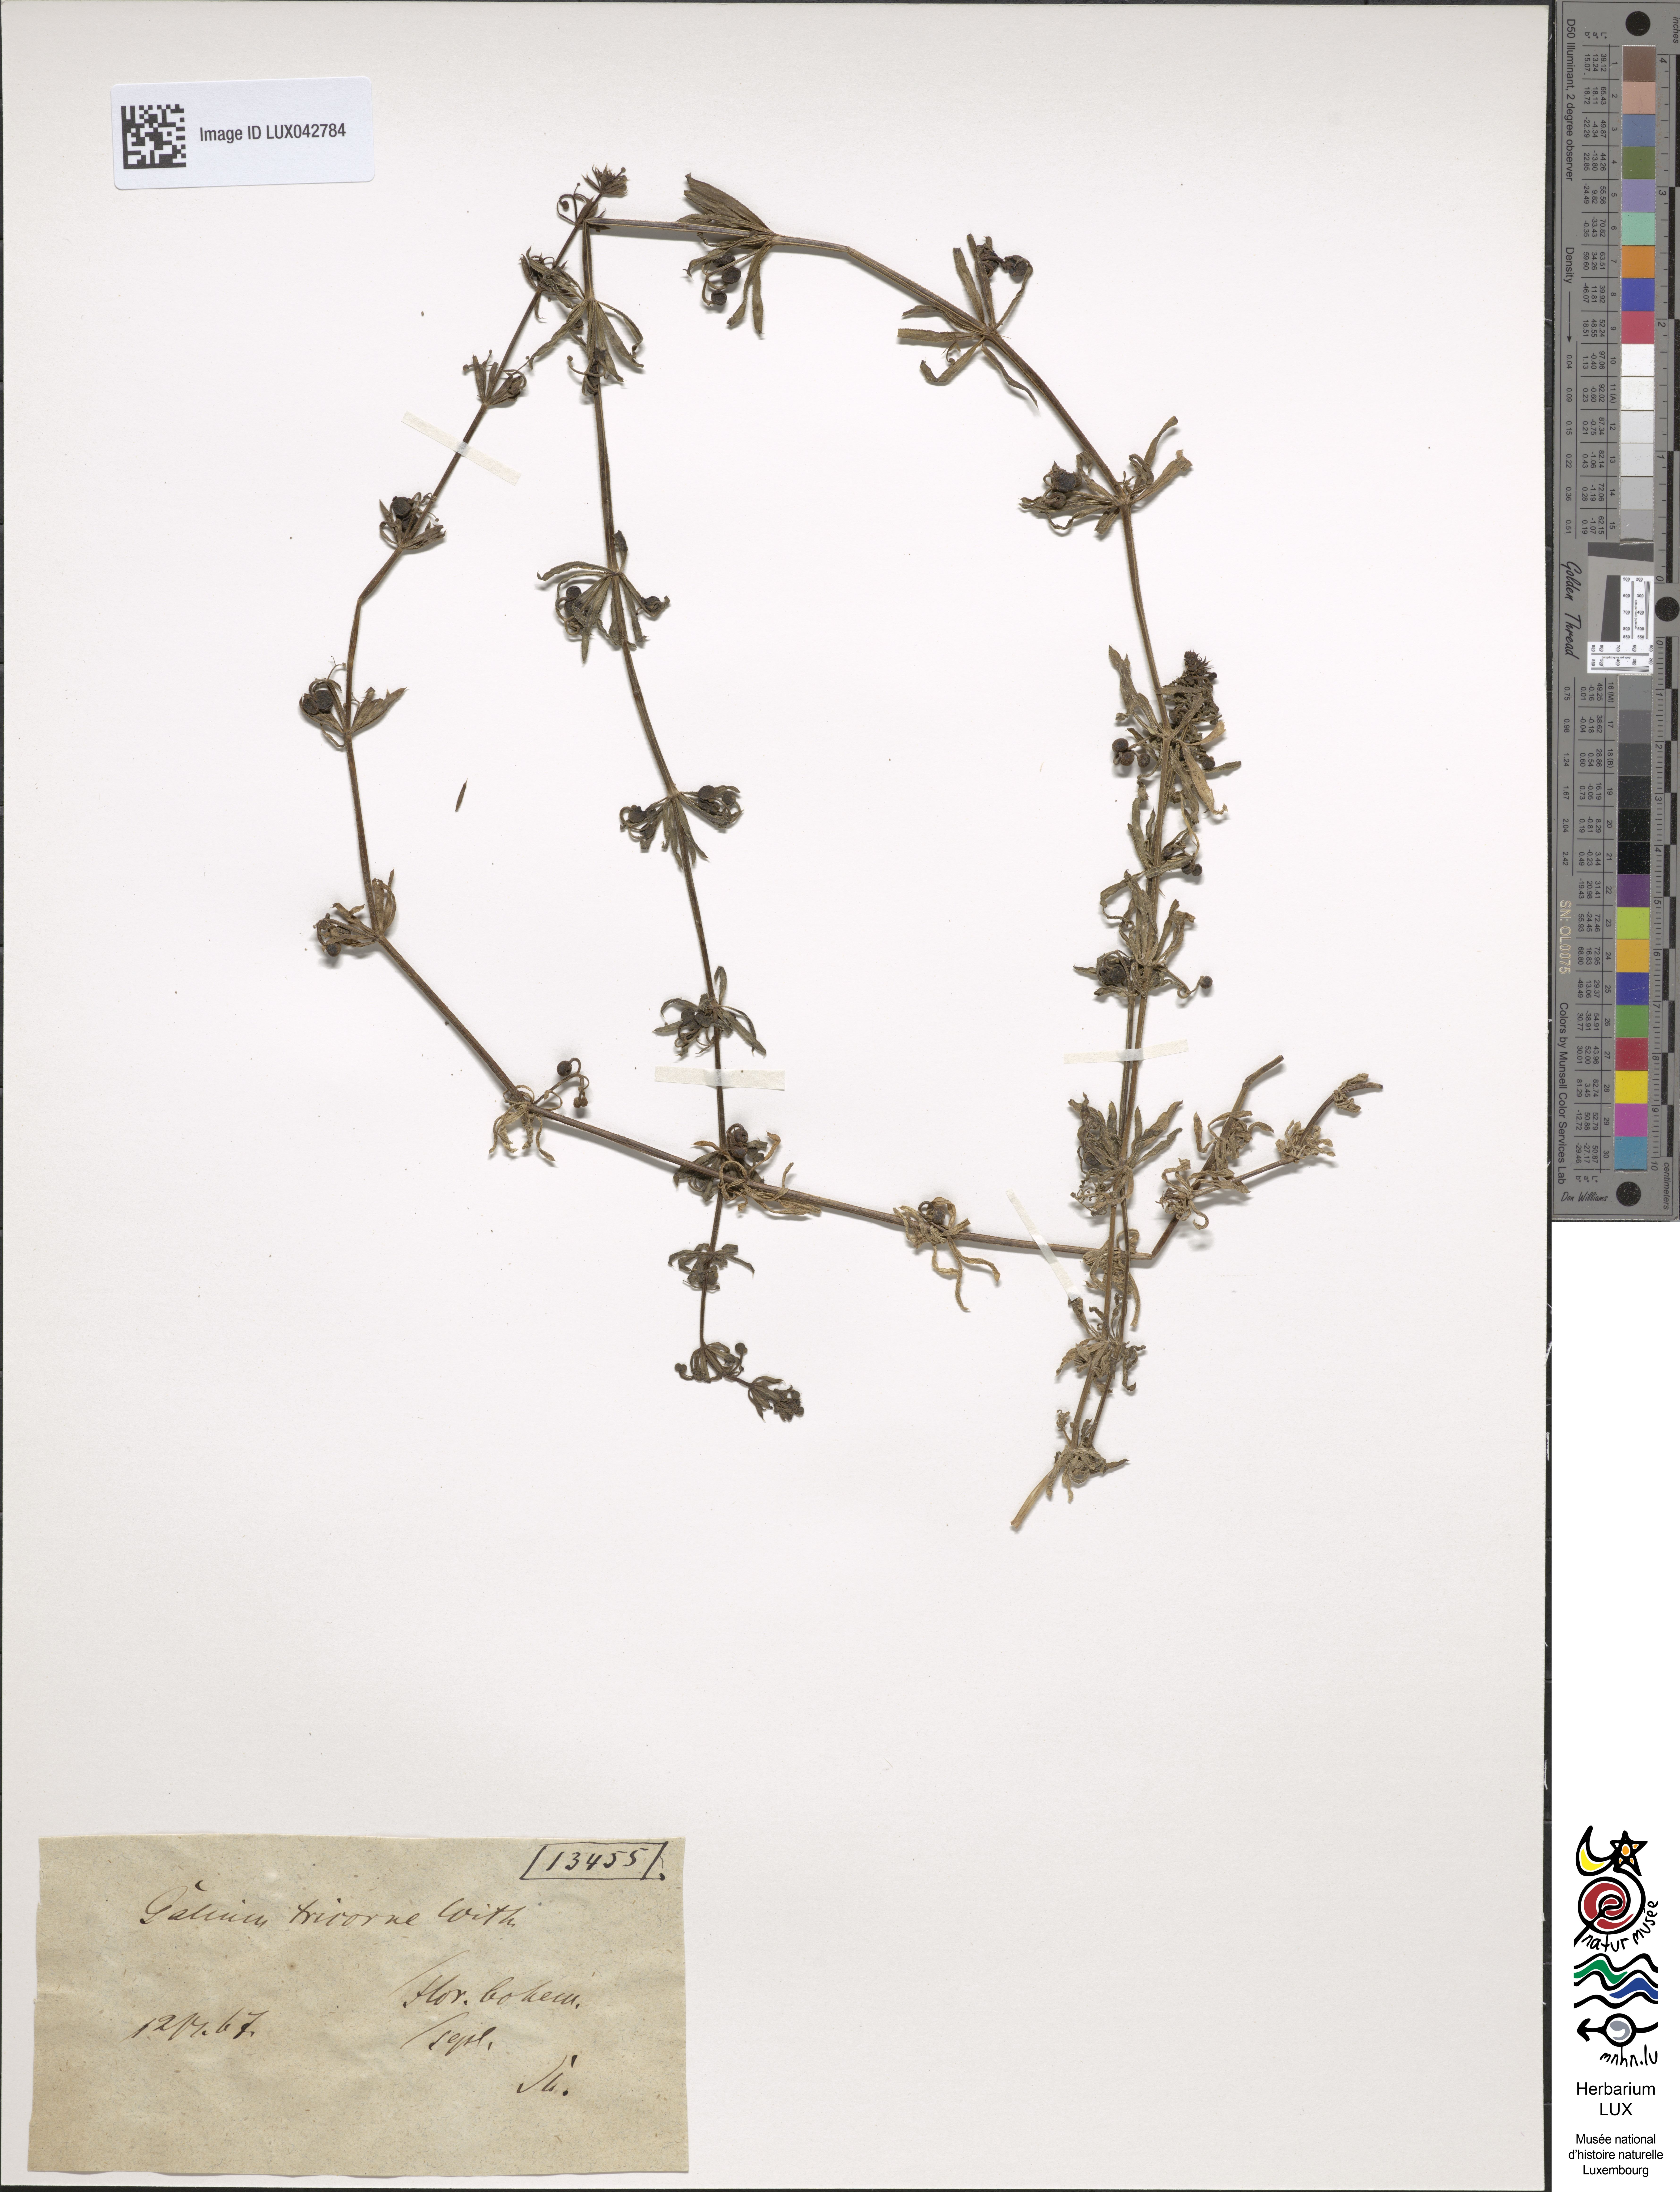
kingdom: Plantae
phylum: Tracheophyta
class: Magnoliopsida
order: Gentianales
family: Rubiaceae
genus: Galium
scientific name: Galium tricornutum
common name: Corn cleavers
